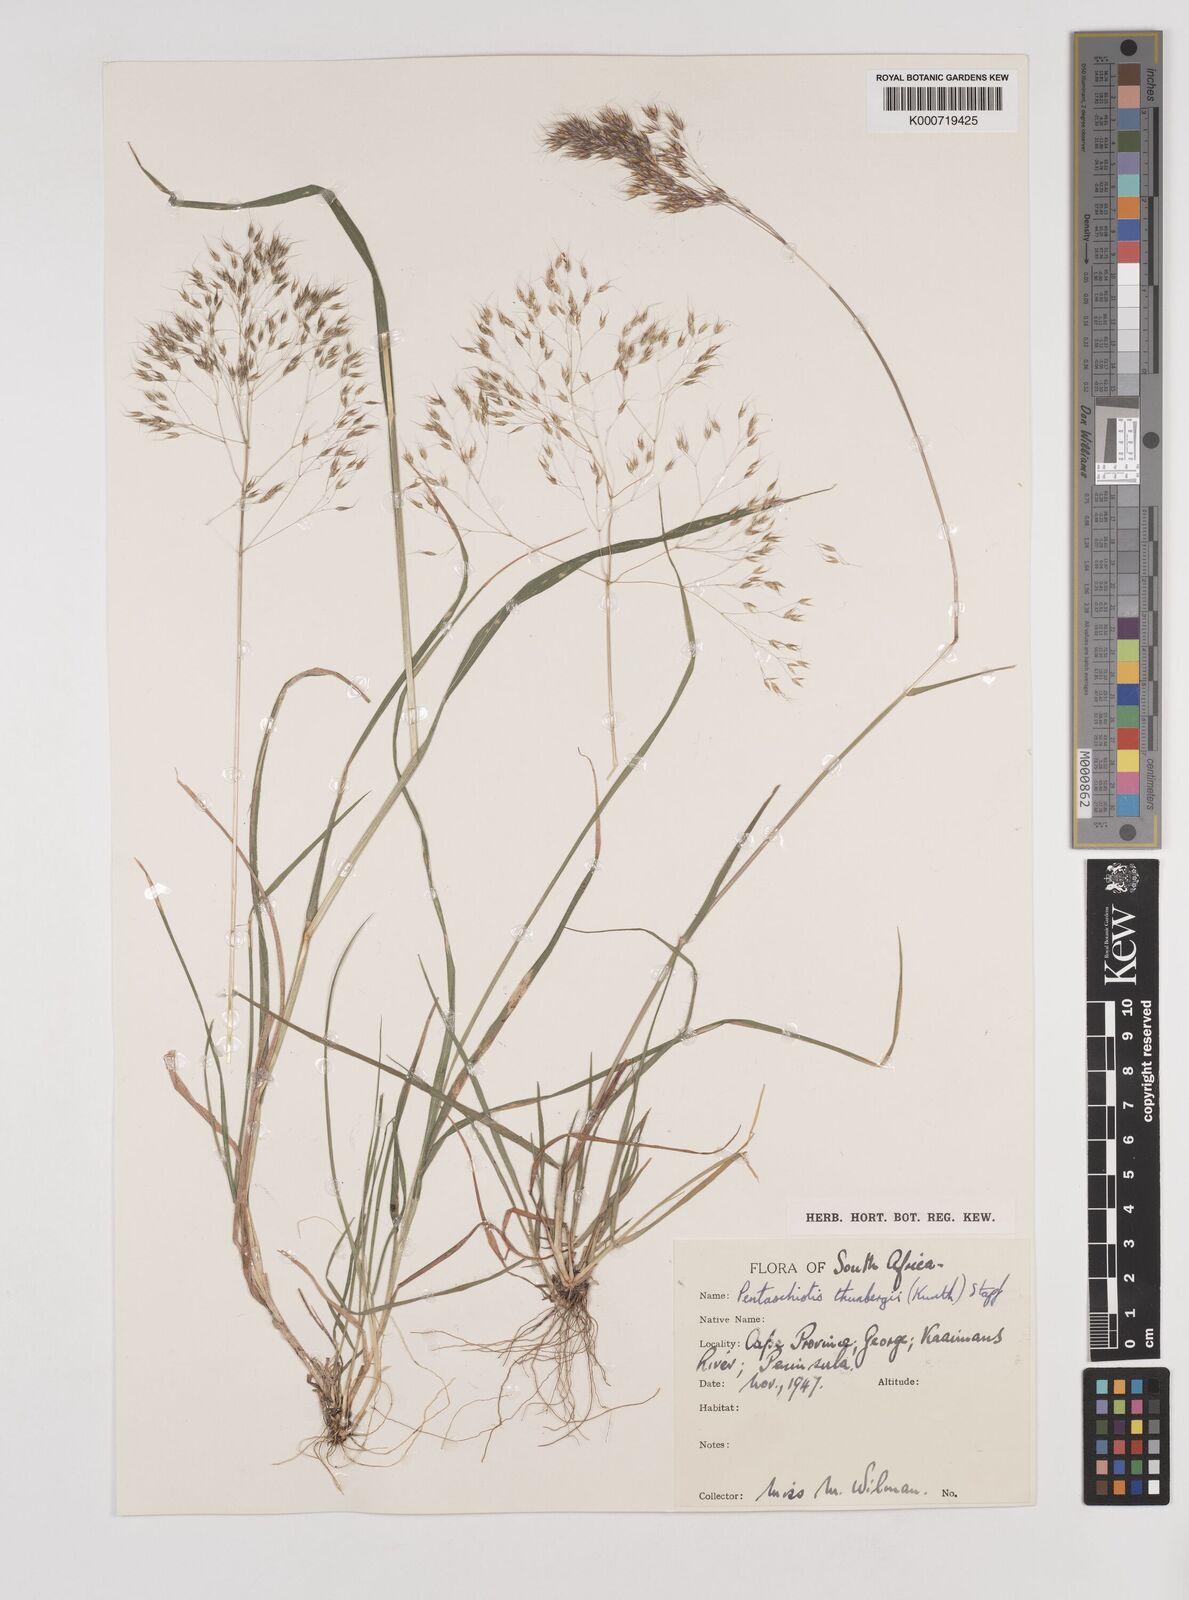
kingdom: Plantae
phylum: Tracheophyta
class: Liliopsida
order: Poales
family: Poaceae
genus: Pentameris
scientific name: Pentameris triseta
